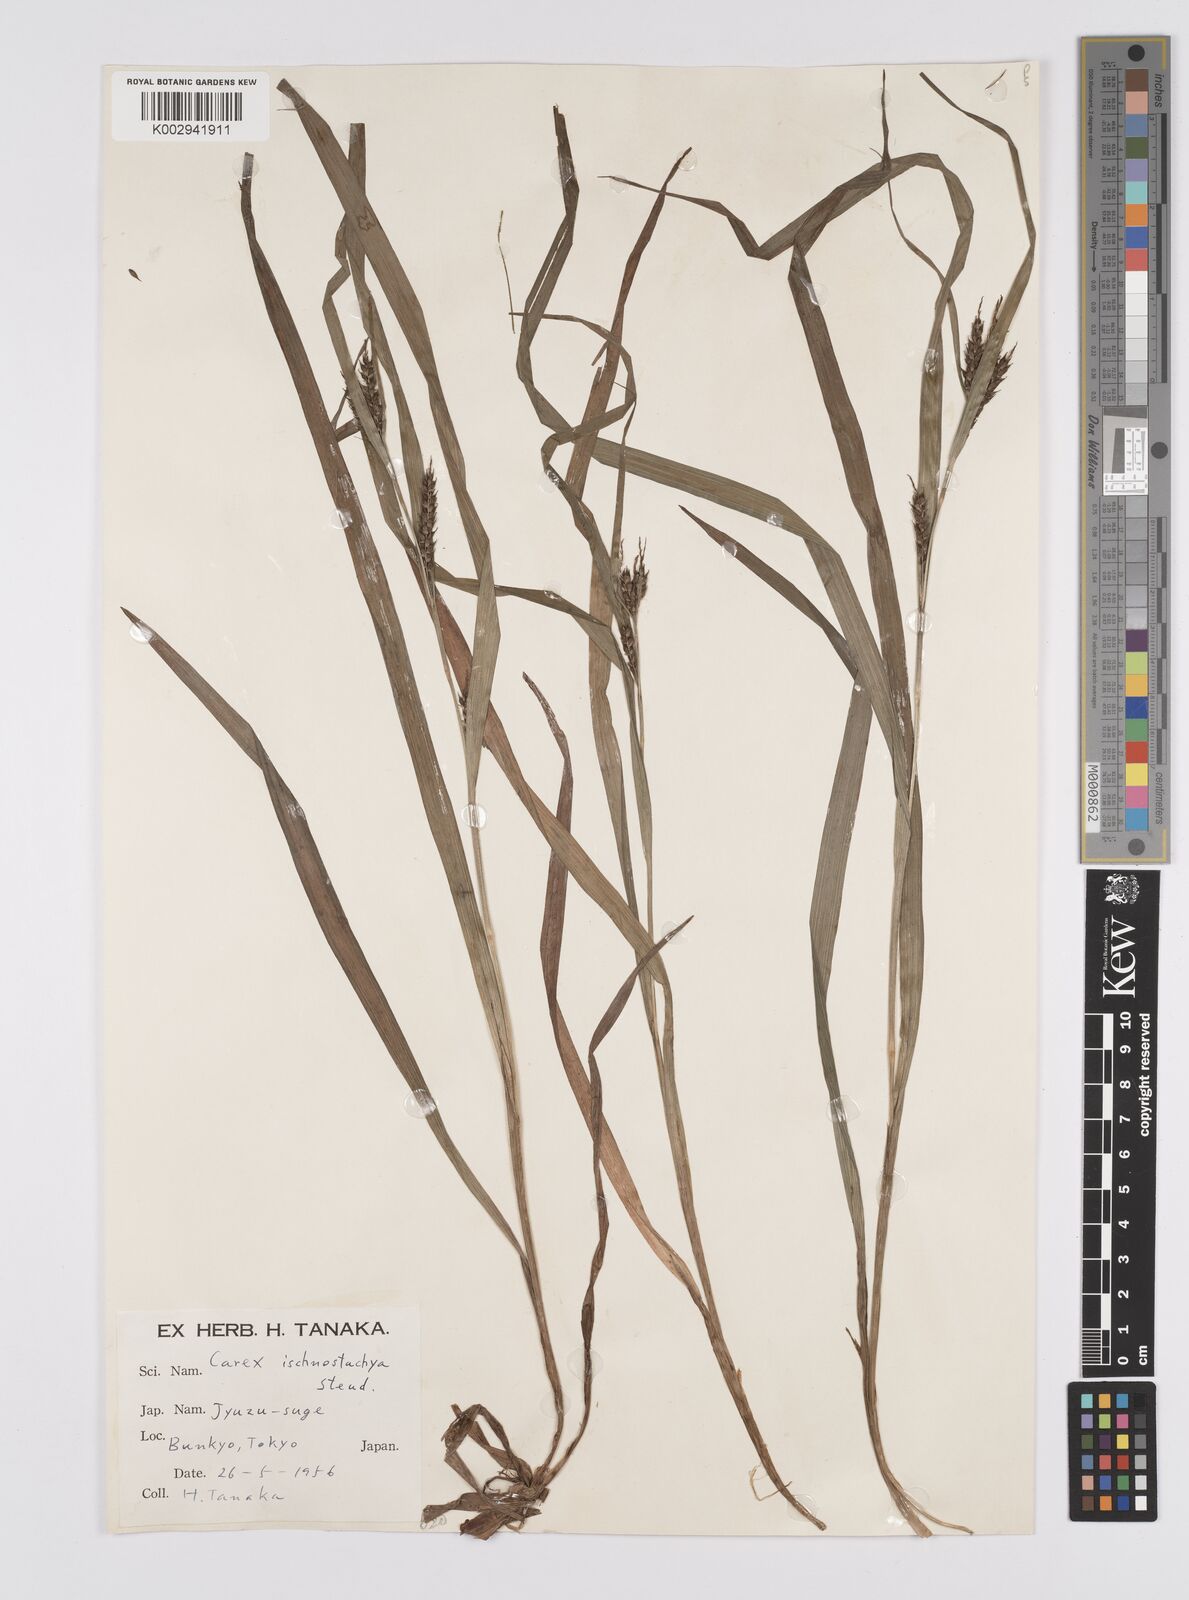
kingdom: Plantae
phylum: Tracheophyta
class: Liliopsida
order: Poales
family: Cyperaceae
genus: Carex
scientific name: Carex ischnostachya
